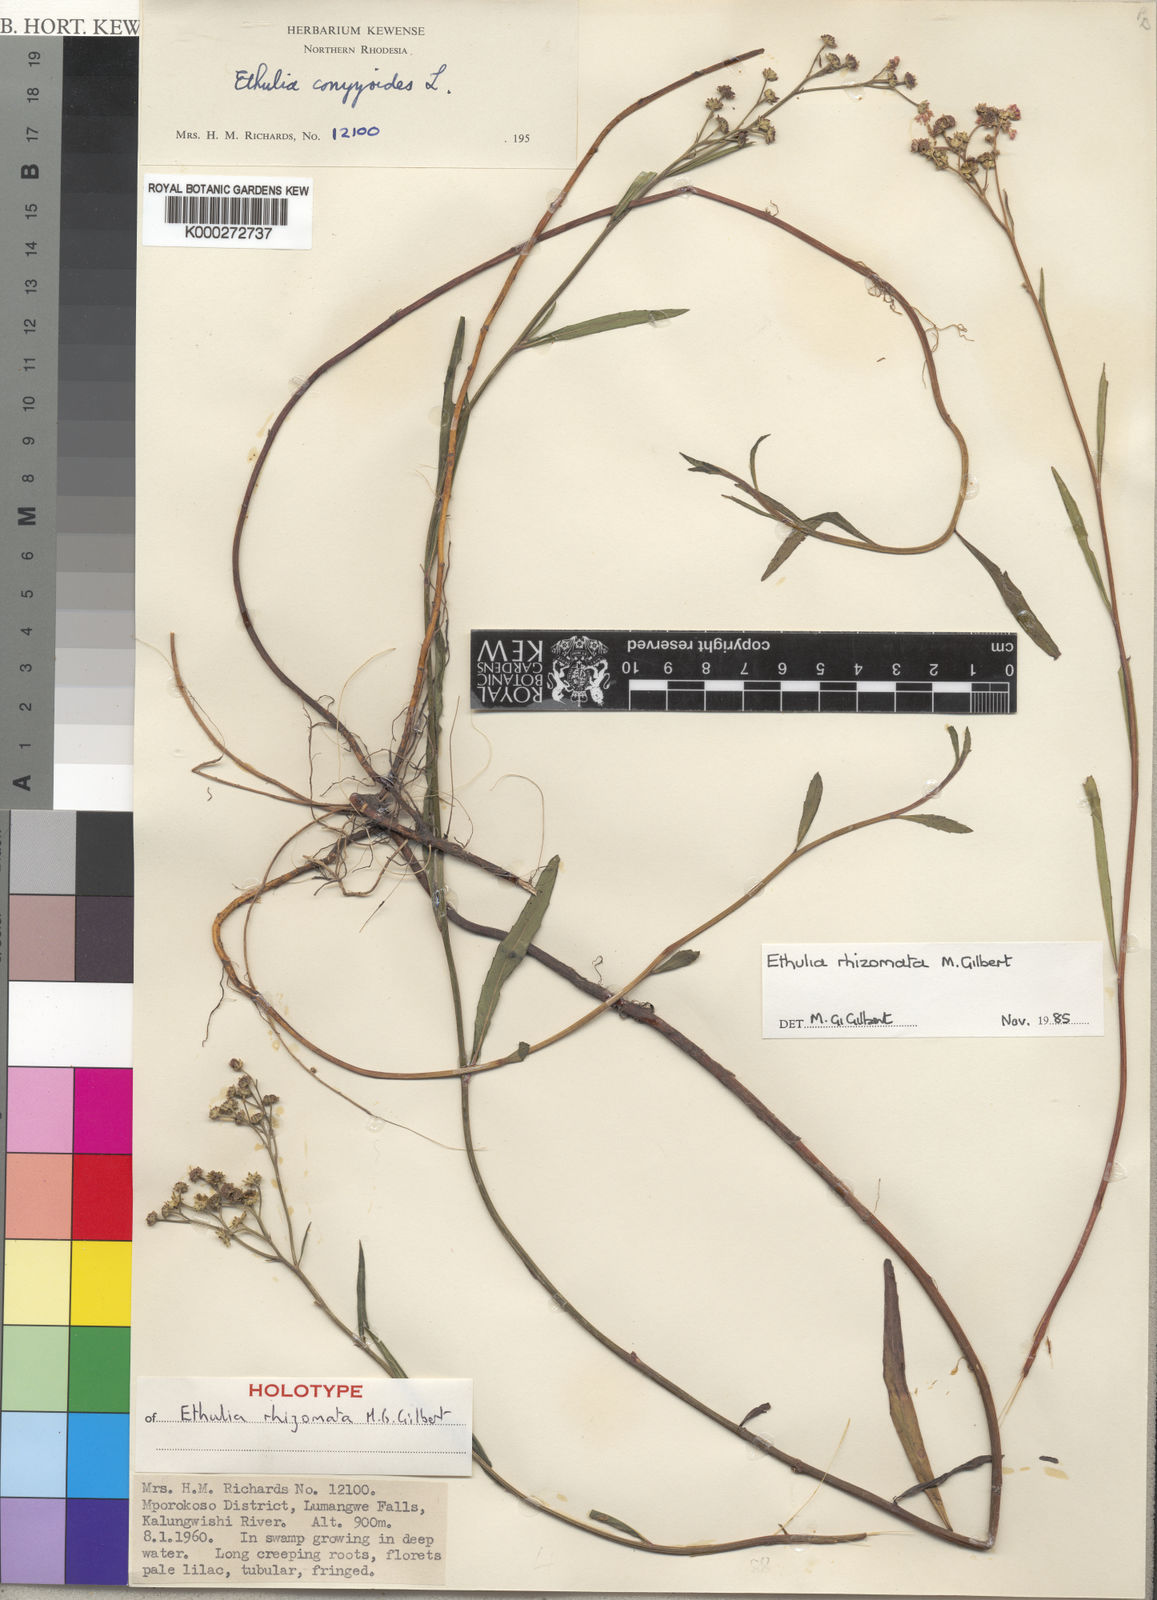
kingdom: Plantae
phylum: Tracheophyta
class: Magnoliopsida
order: Asterales
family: Asteraceae
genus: Ethulia
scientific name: Ethulia rhizomata
